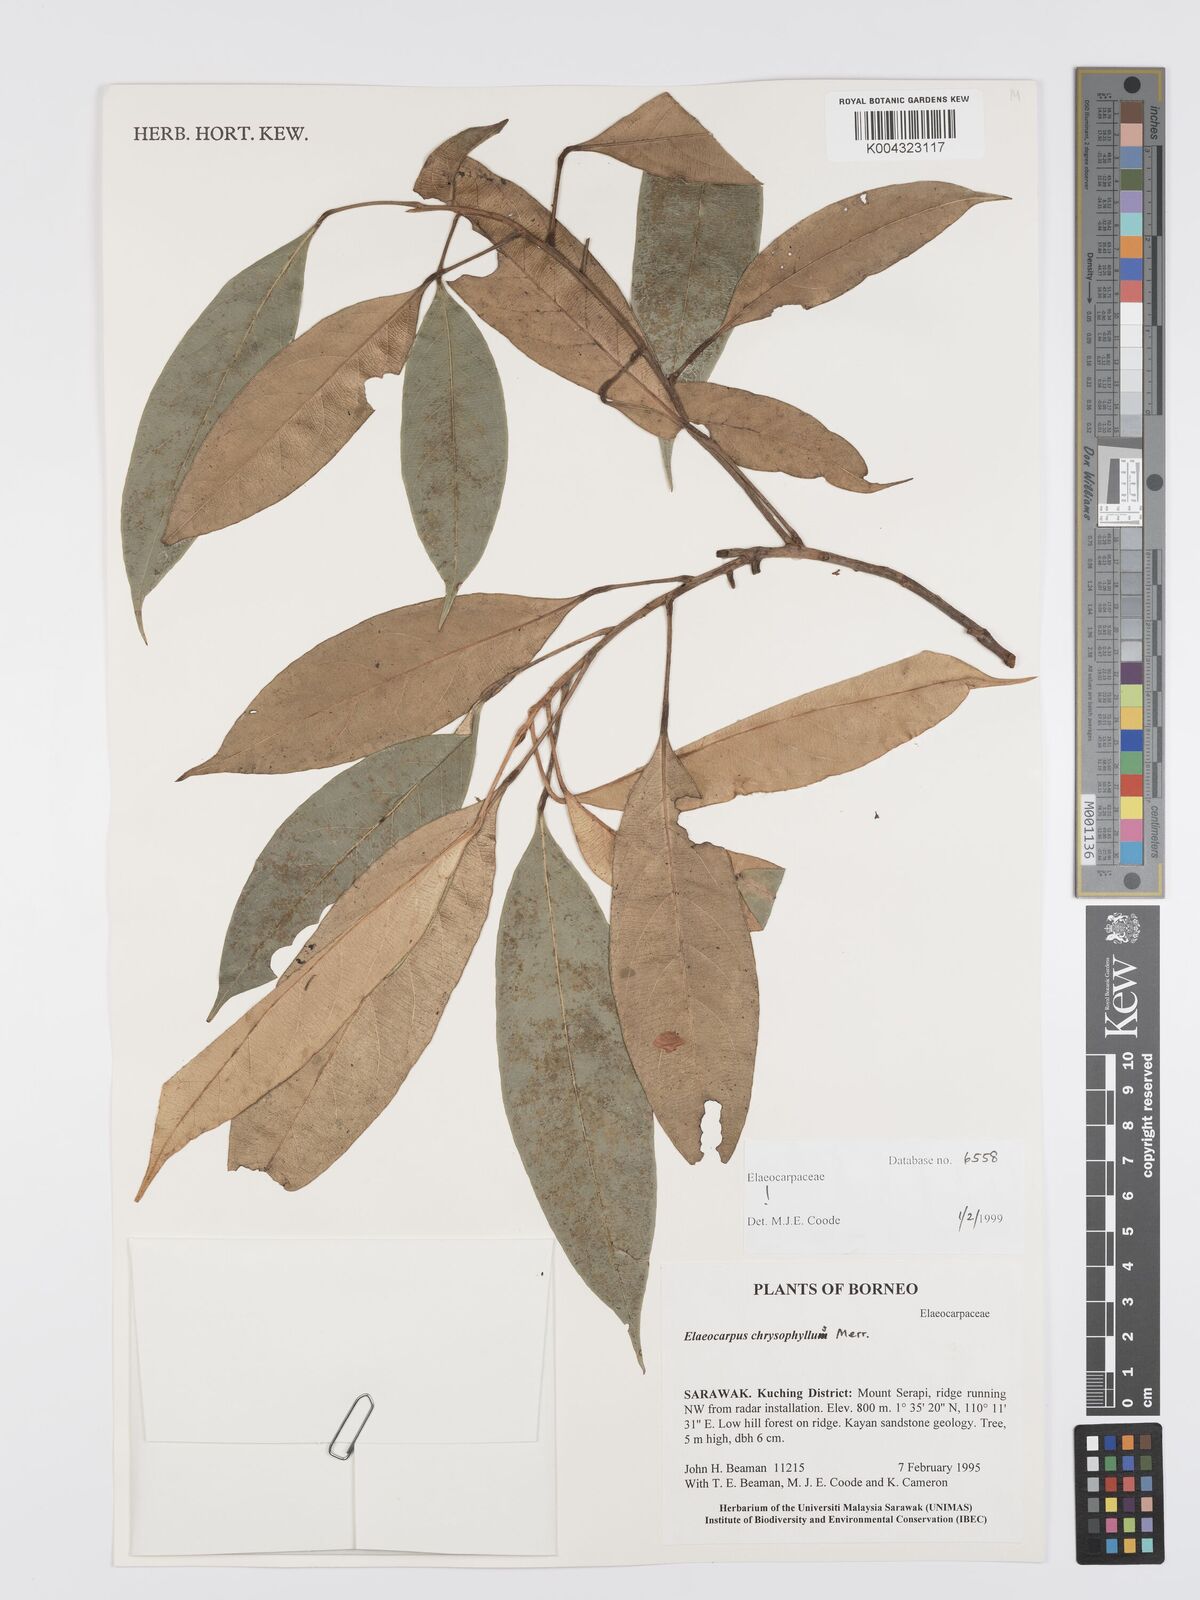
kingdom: Plantae
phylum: Tracheophyta
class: Magnoliopsida
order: Oxalidales
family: Elaeocarpaceae
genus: Elaeocarpus
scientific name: Elaeocarpus chrysophyllus
